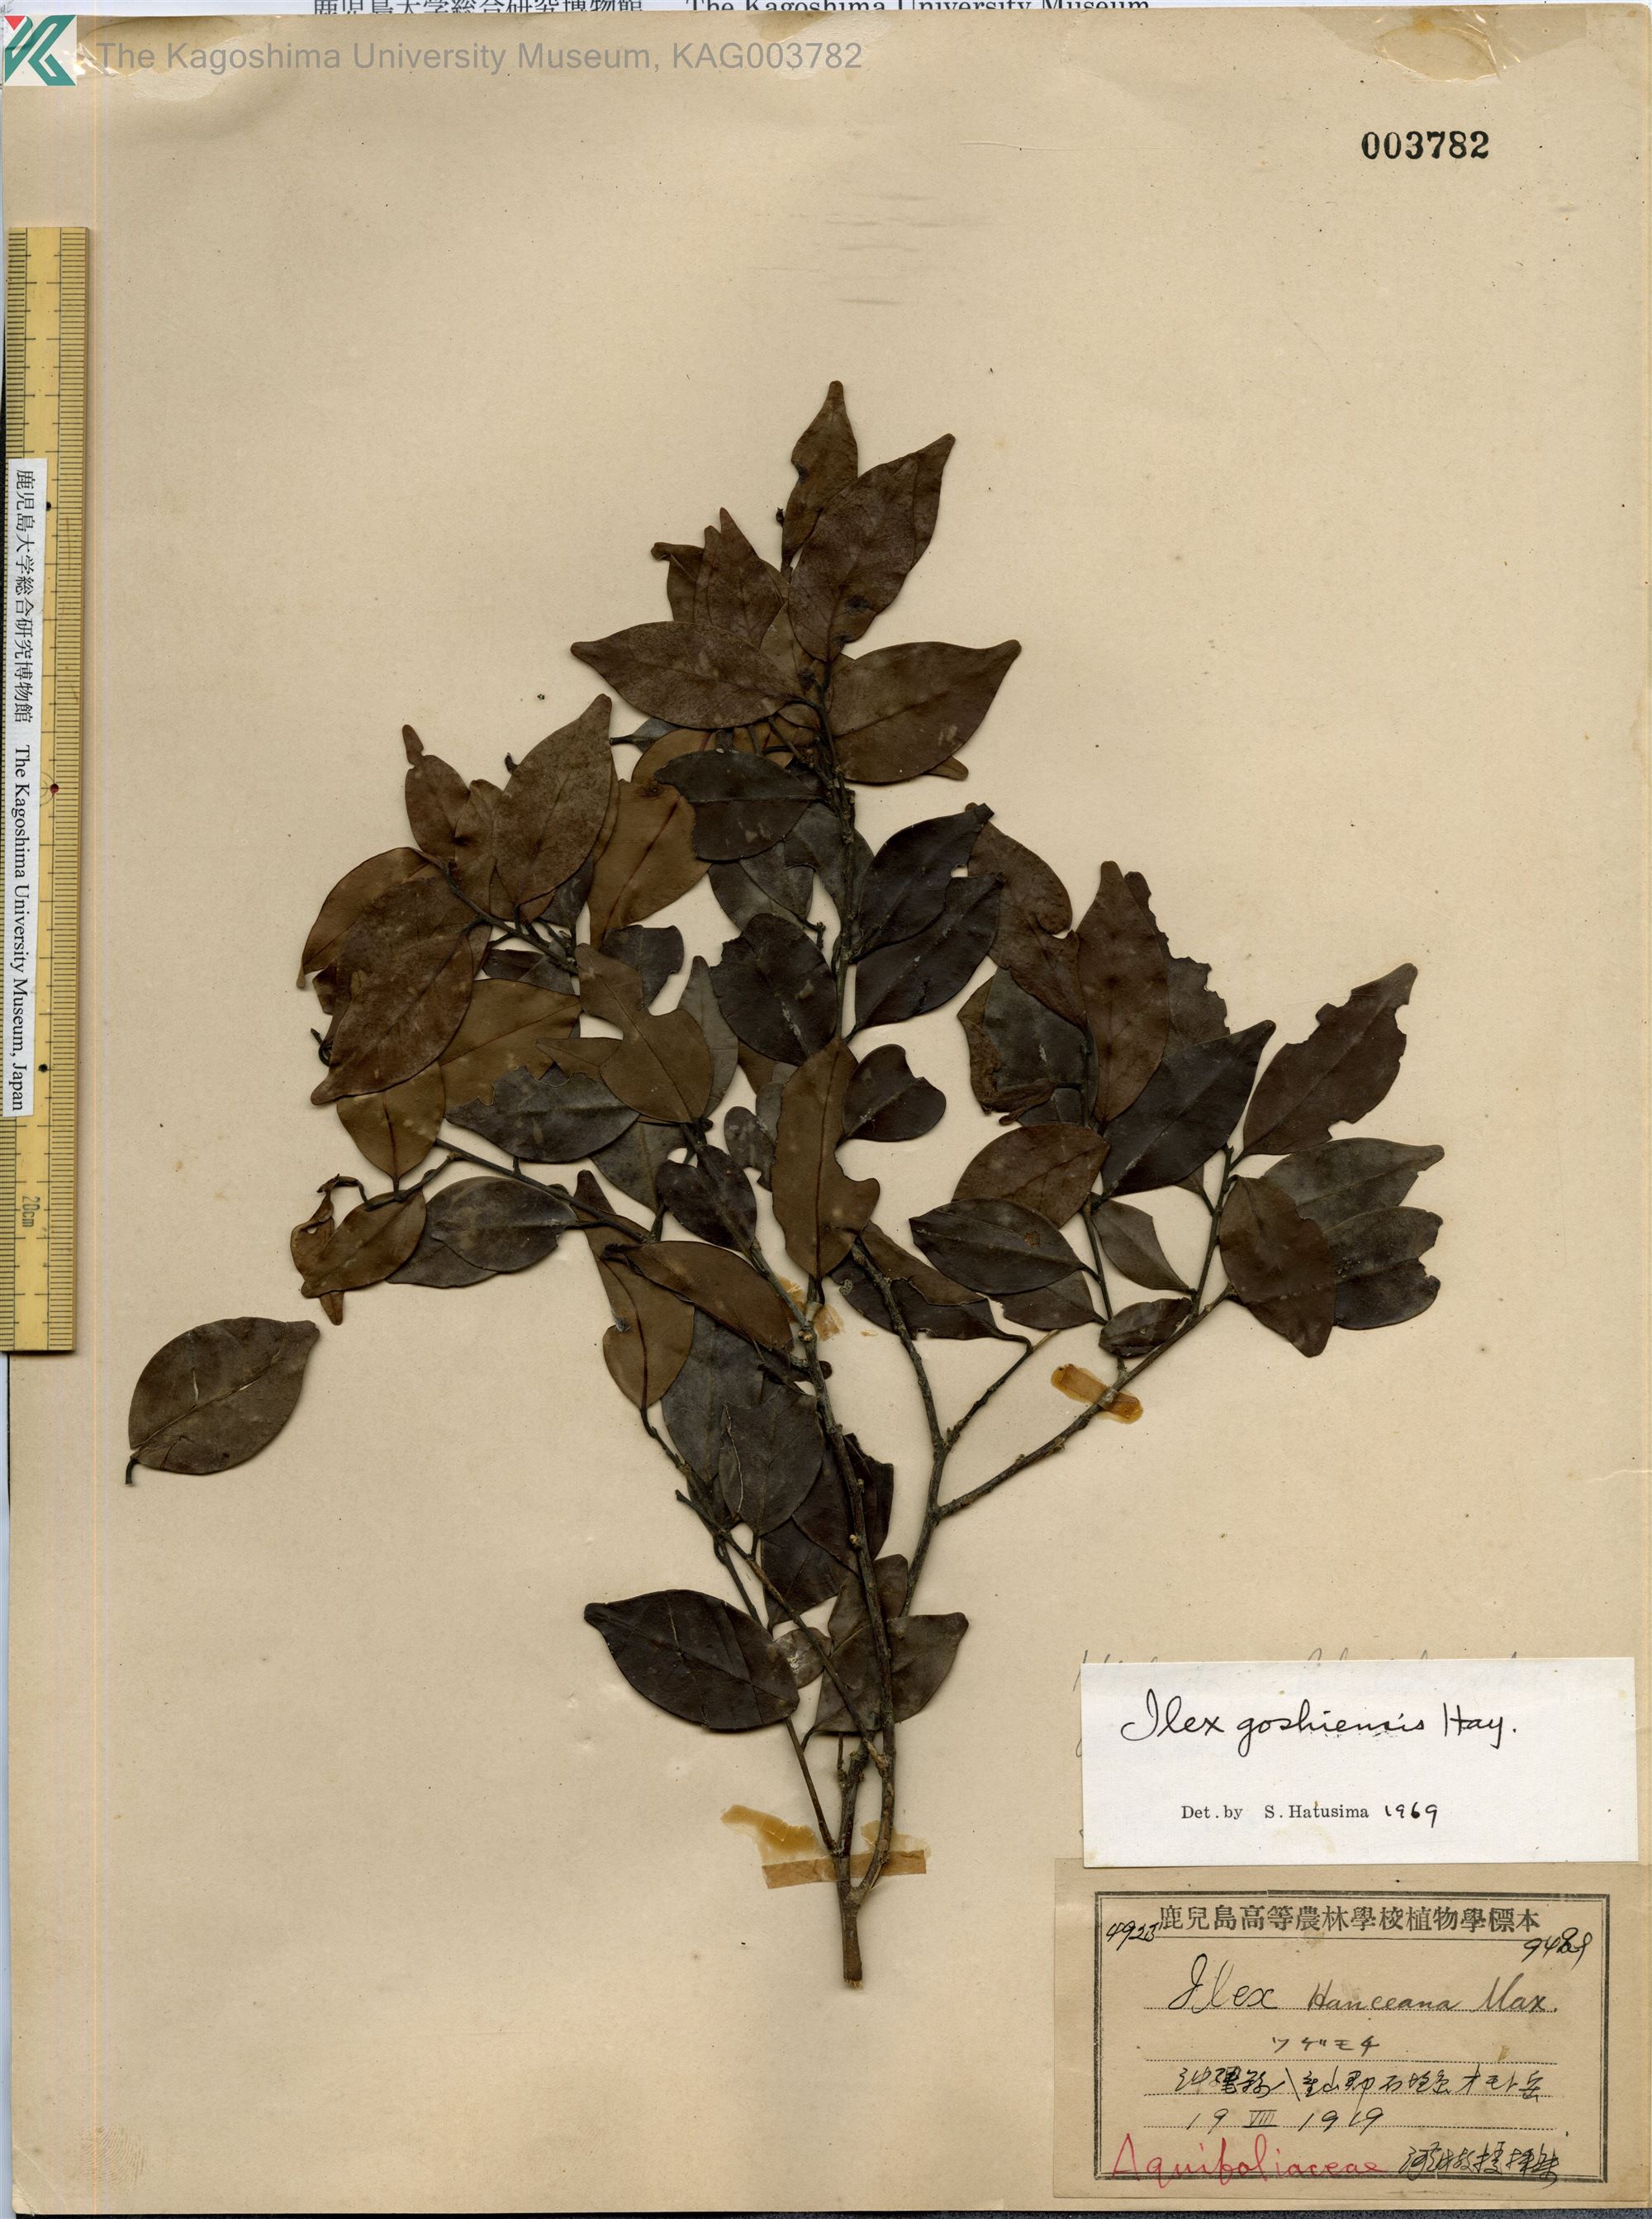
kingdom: Plantae
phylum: Tracheophyta
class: Magnoliopsida
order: Aquifoliales
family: Aquifoliaceae
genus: Ilex
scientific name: Ilex goshiensis
